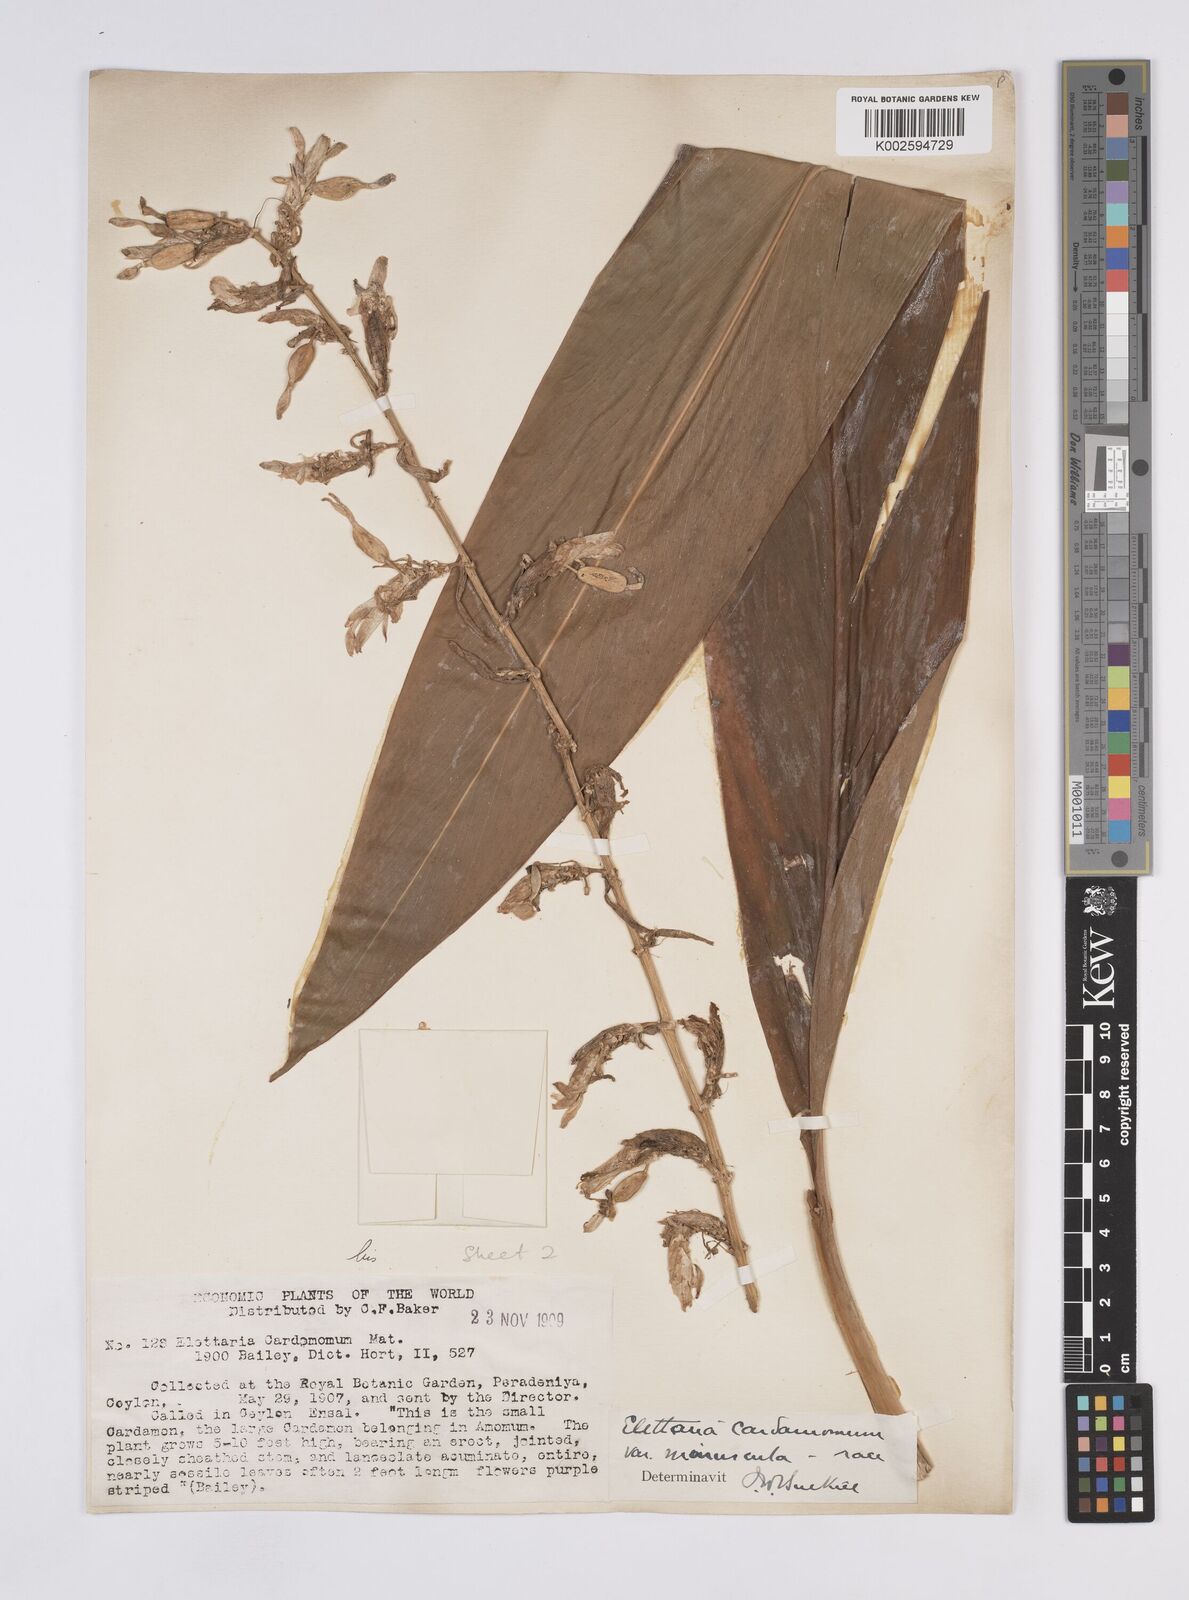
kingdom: Plantae
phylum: Tracheophyta
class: Liliopsida
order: Zingiberales
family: Zingiberaceae
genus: Elettaria
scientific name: Elettaria cardamomum
